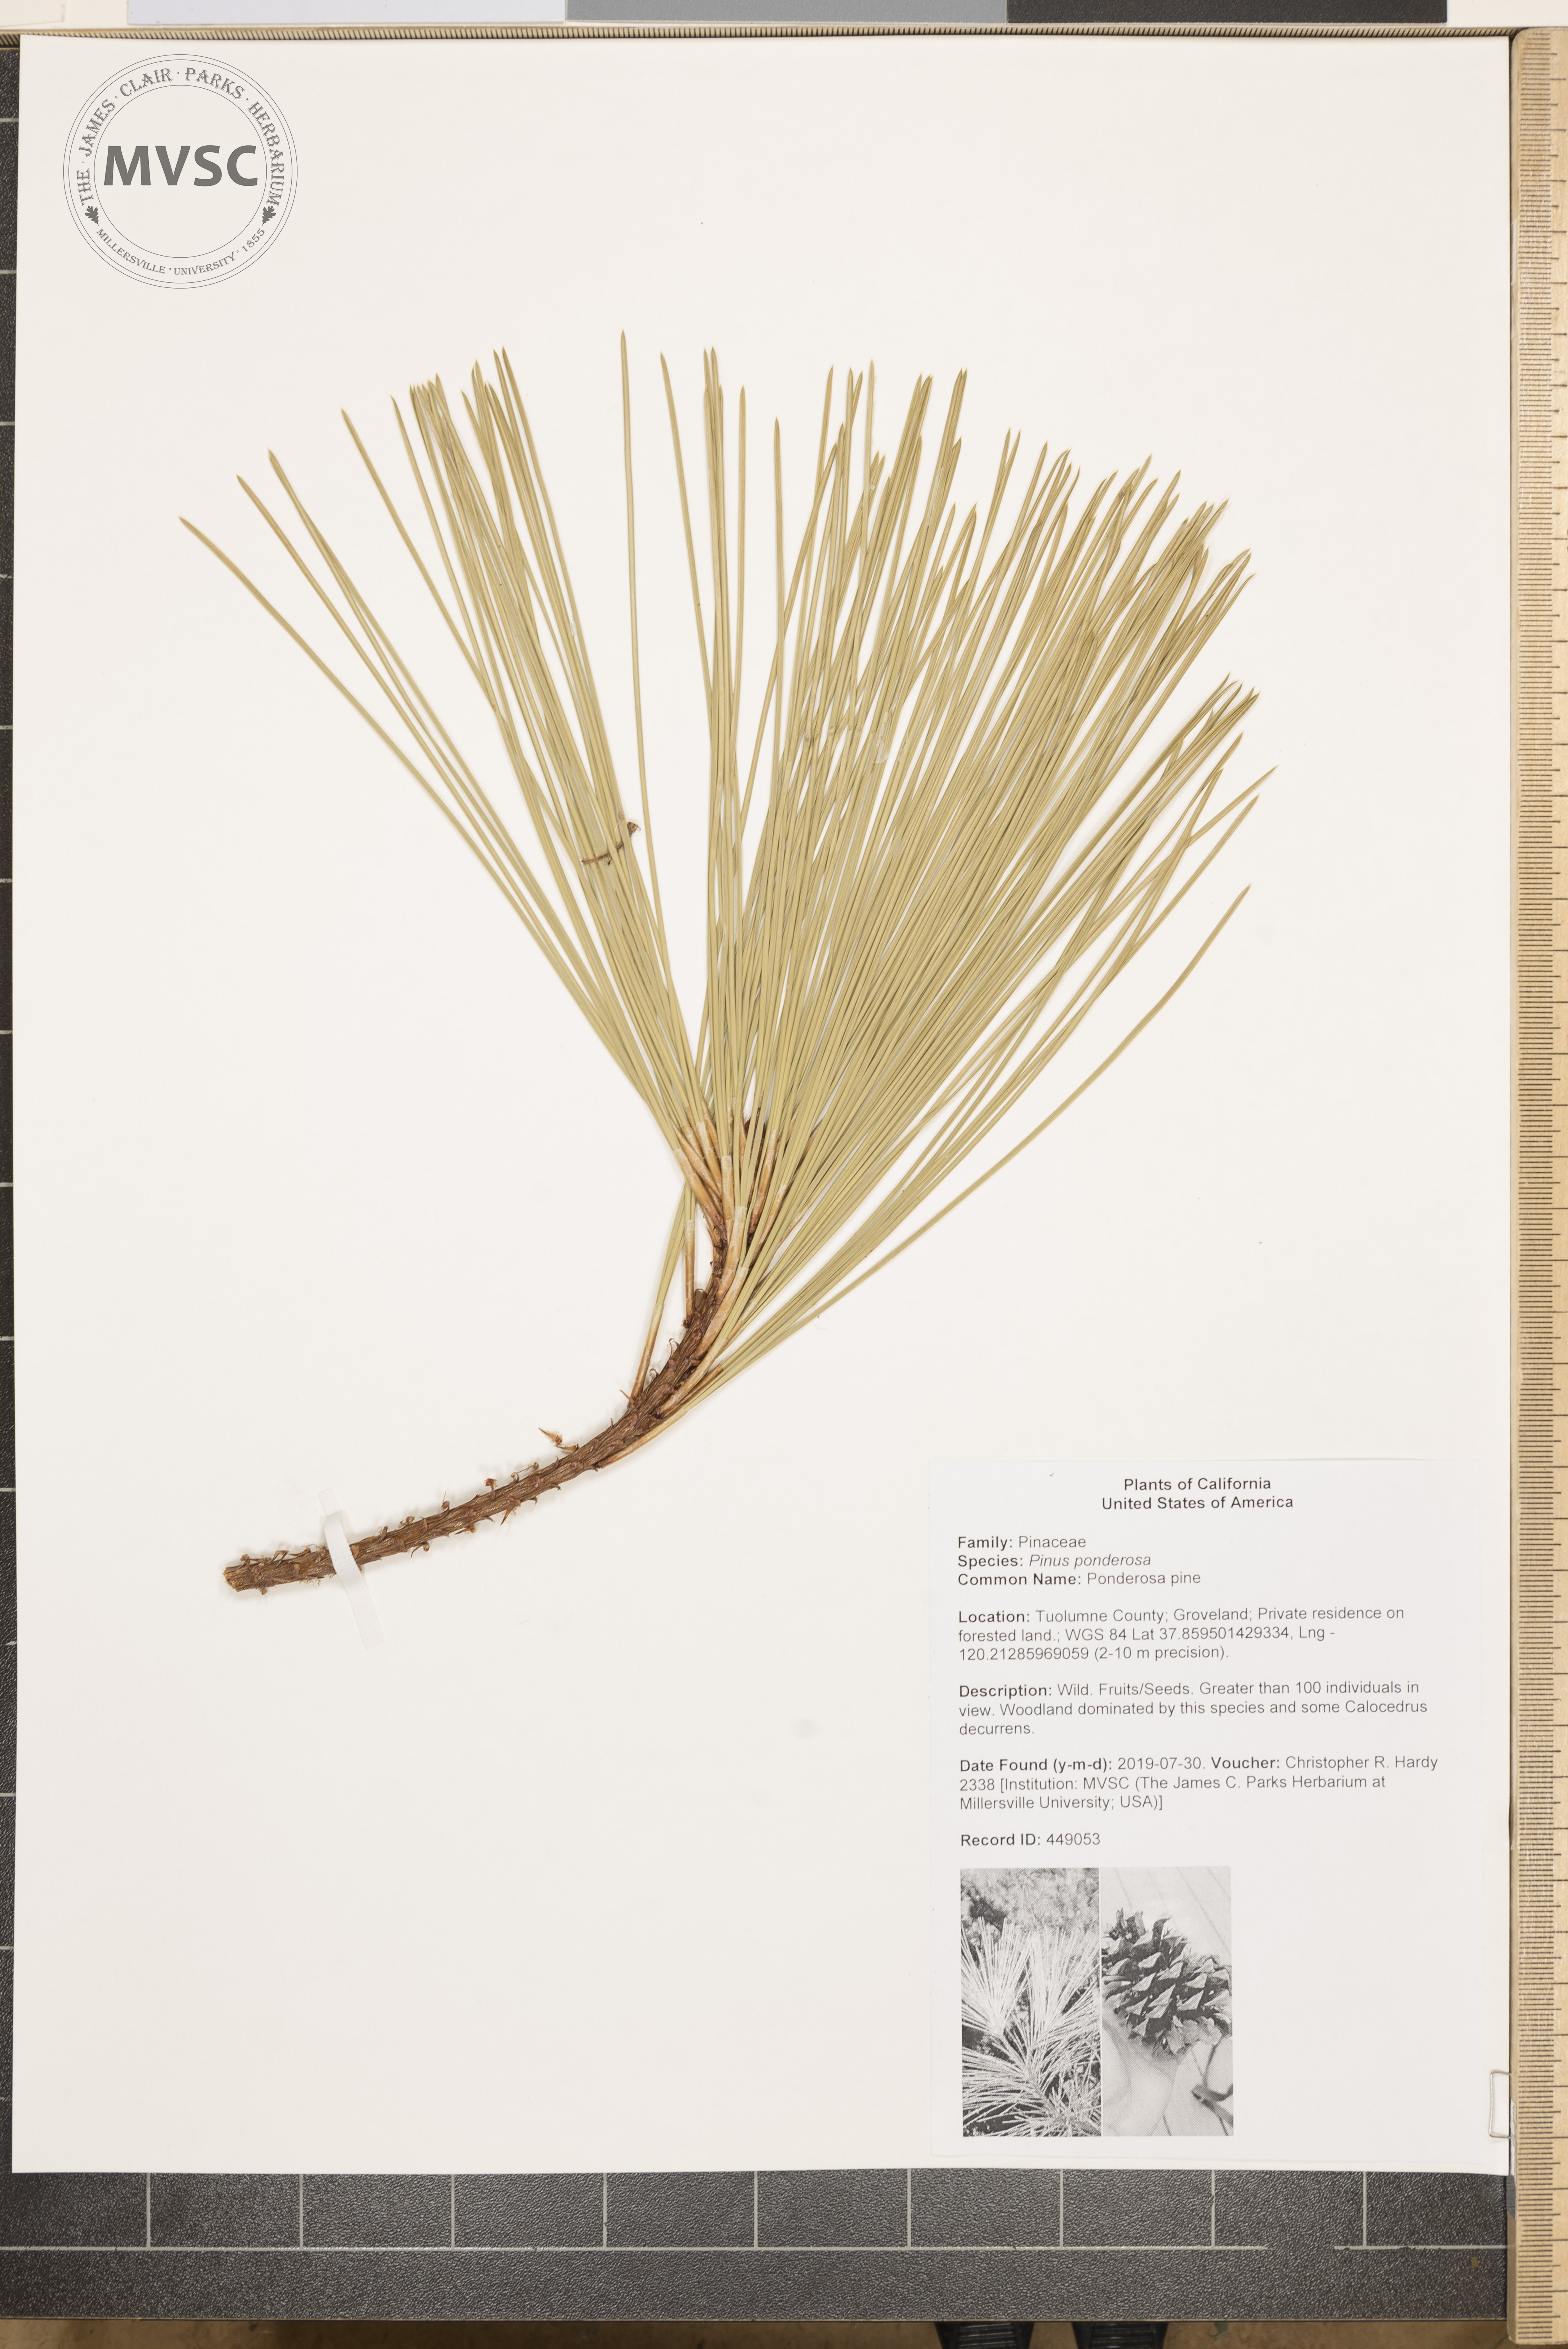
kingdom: Plantae
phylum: Tracheophyta
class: Pinopsida
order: Pinales
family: Pinaceae
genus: Pinus
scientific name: Pinus ponderosa
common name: Ponderosa pine
